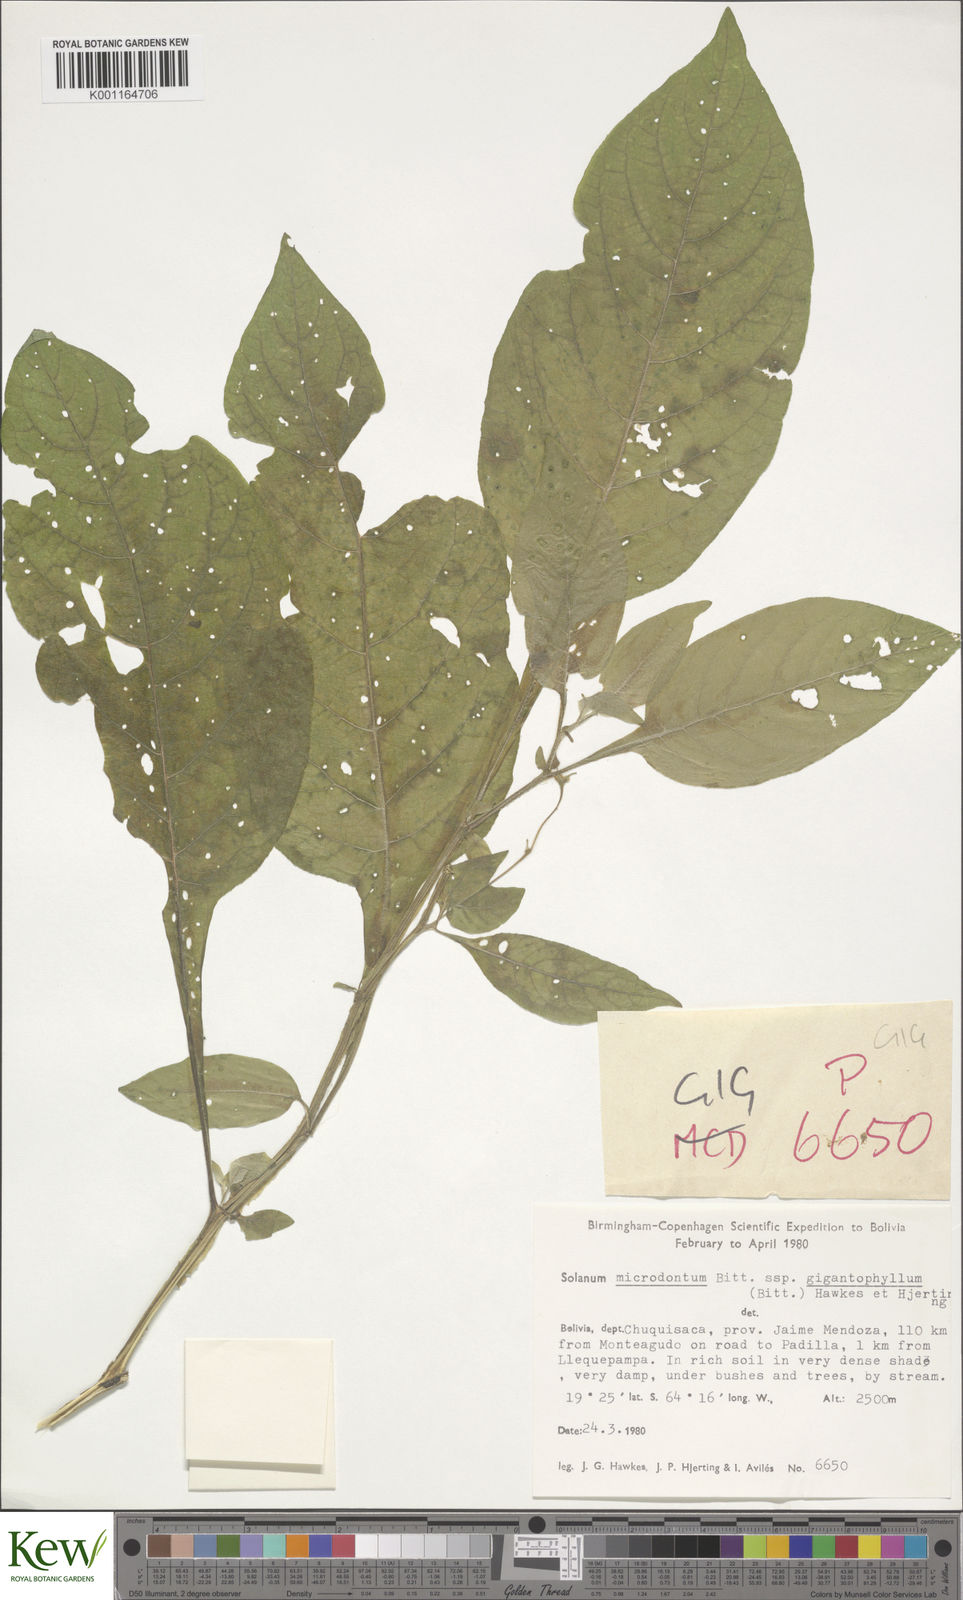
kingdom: Plantae
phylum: Tracheophyta
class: Magnoliopsida
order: Solanales
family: Solanaceae
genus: Solanum
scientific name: Solanum microdontum
